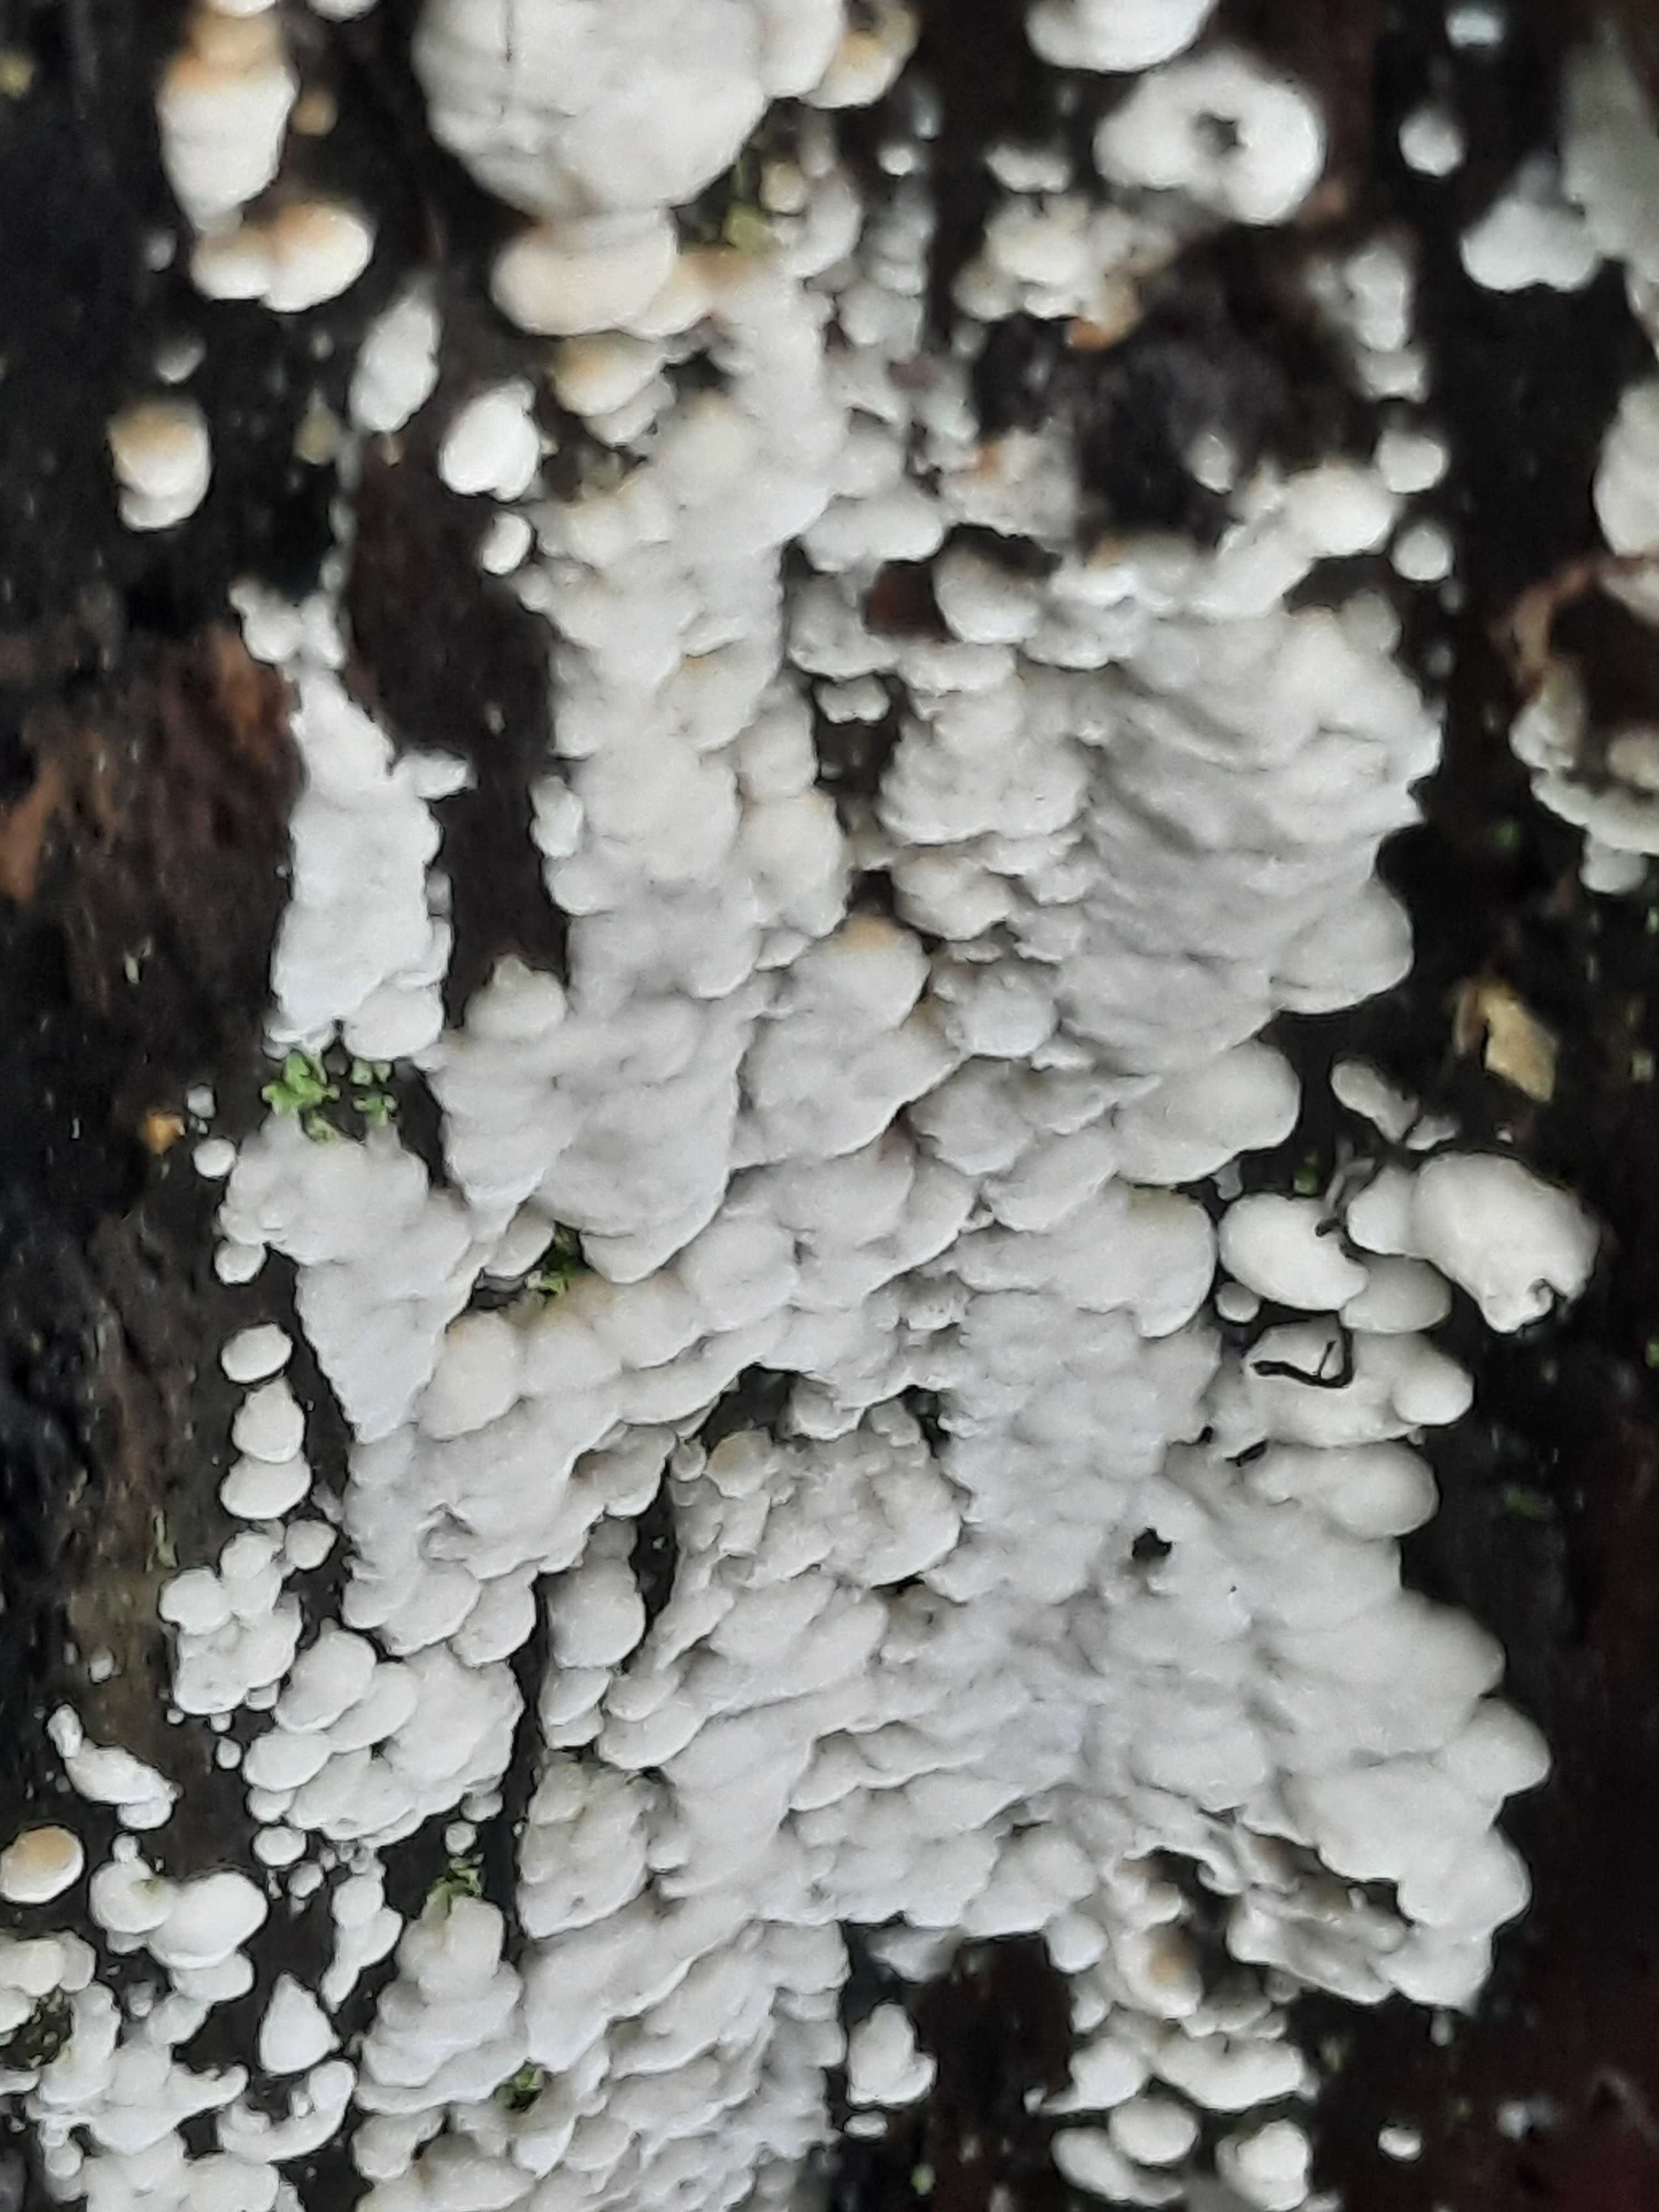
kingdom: Fungi
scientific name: Fungi
